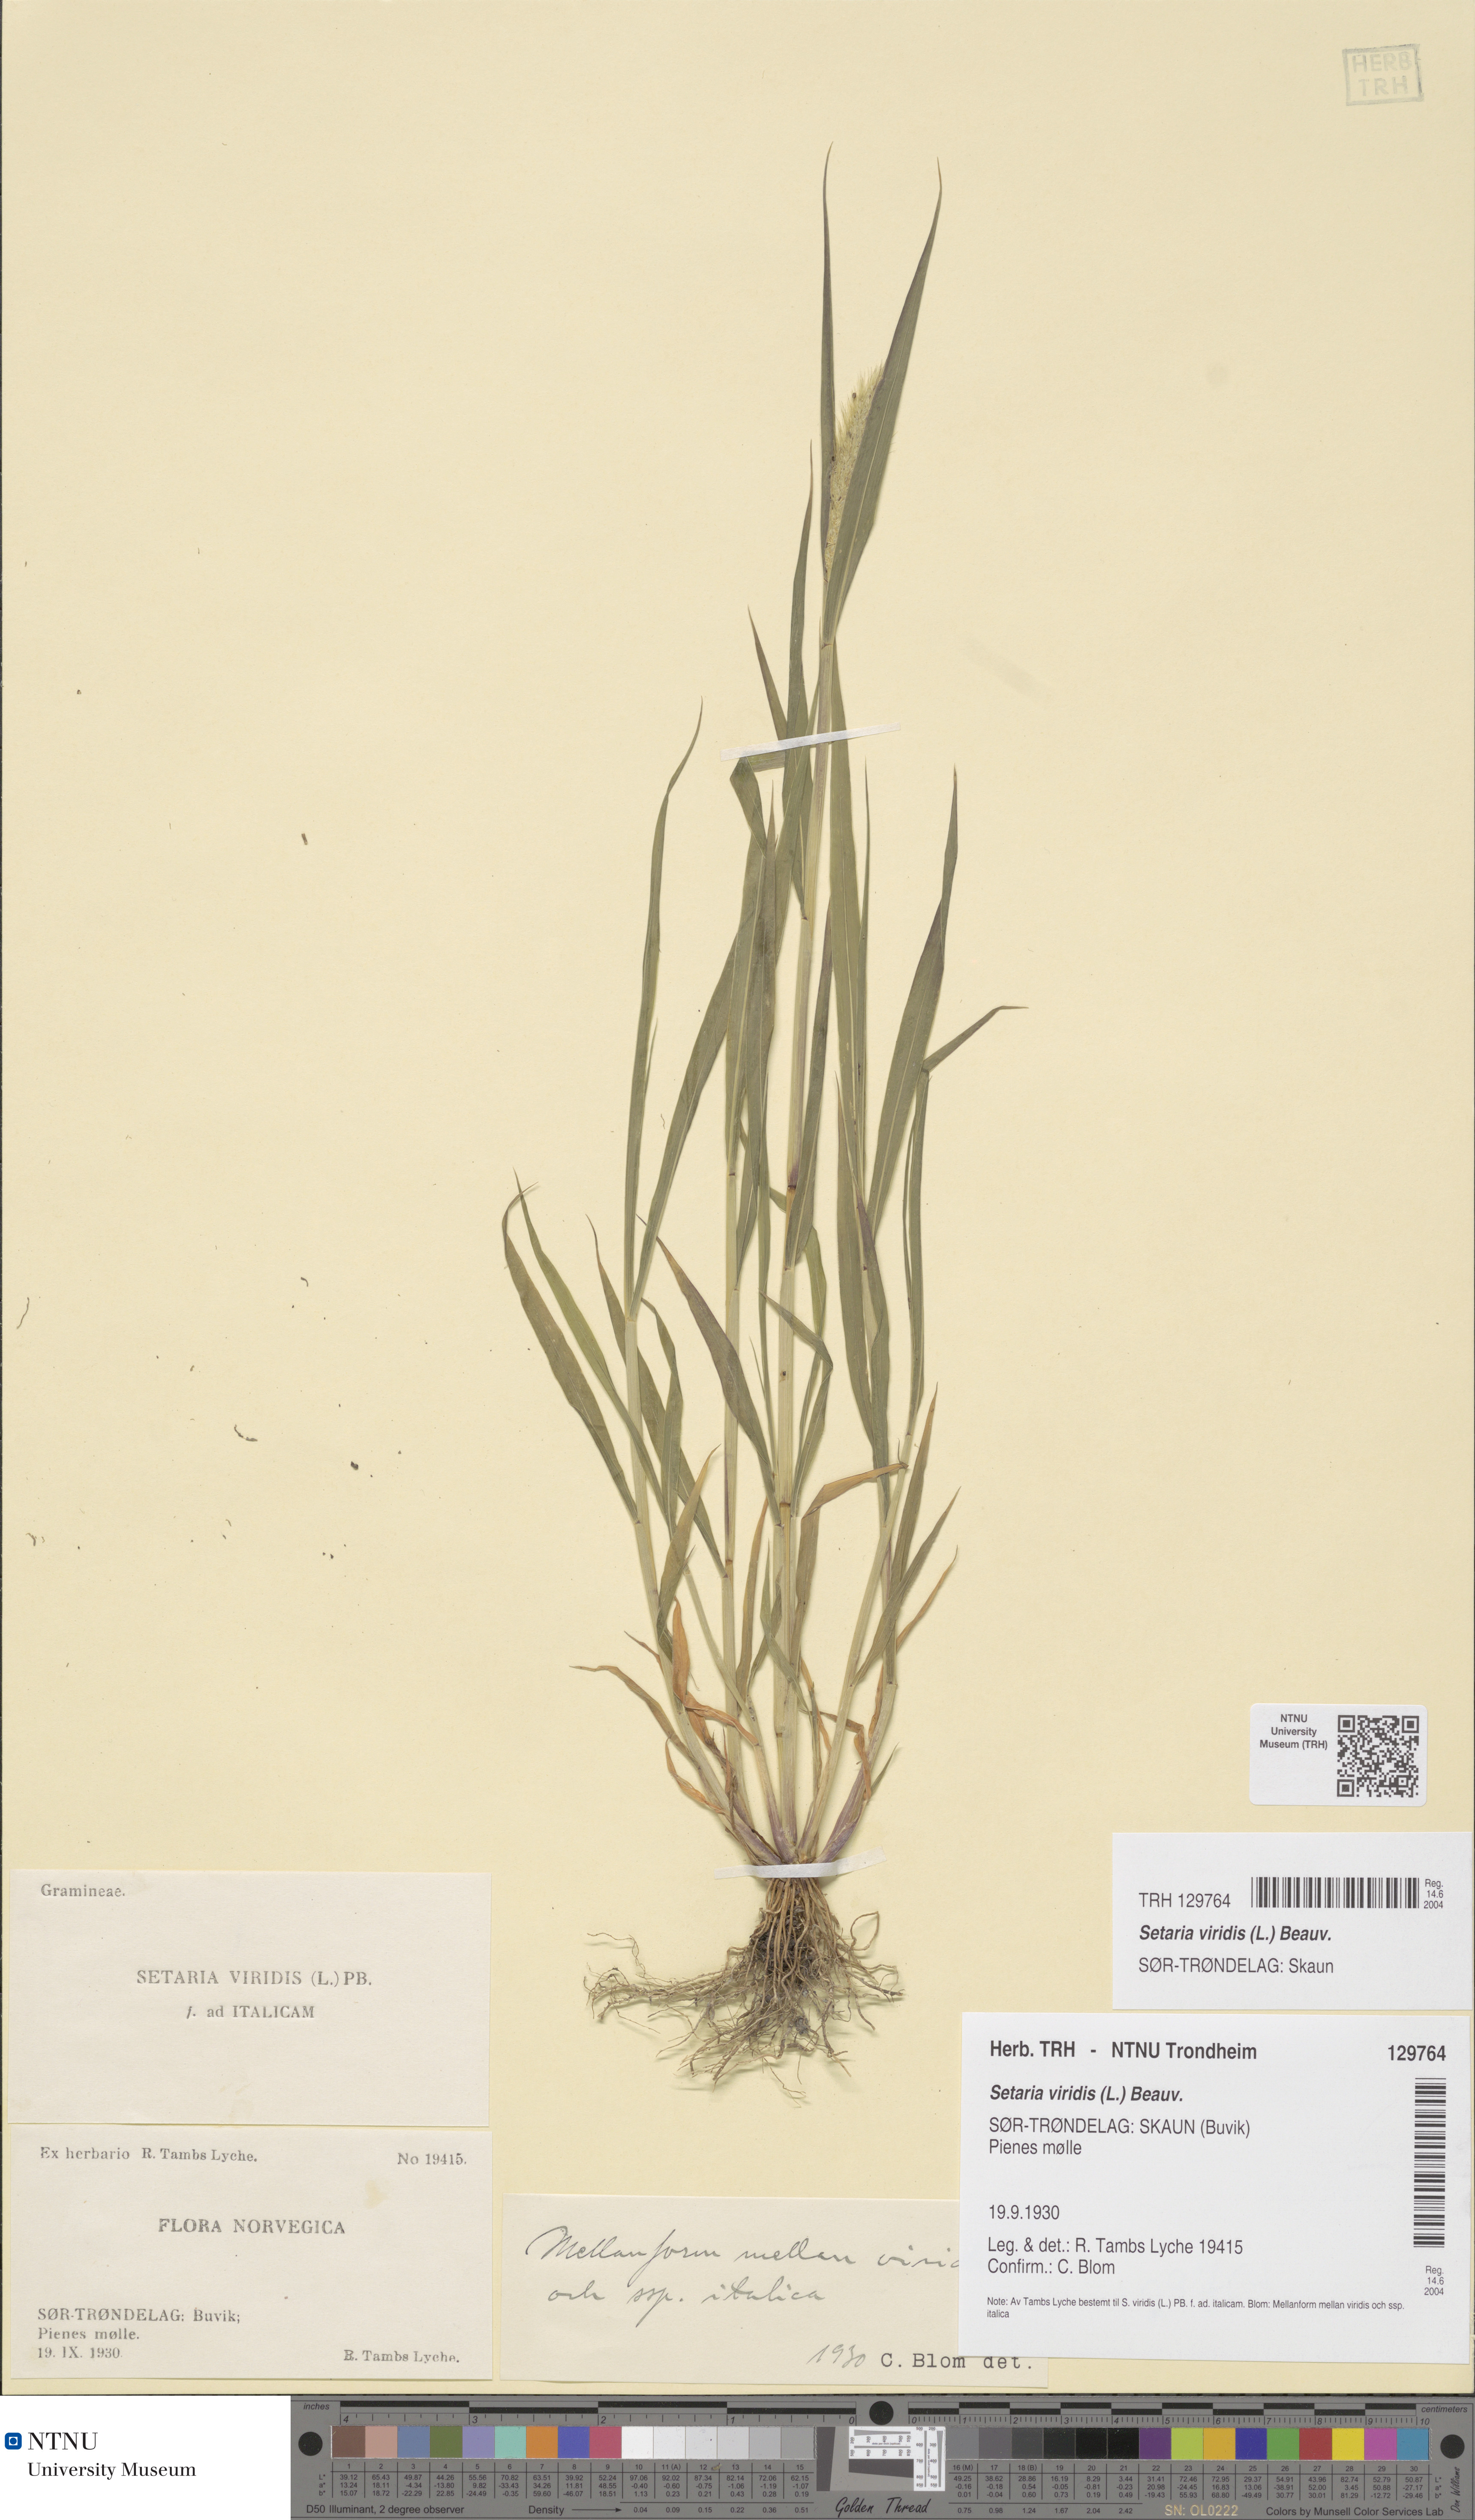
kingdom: Plantae
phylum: Tracheophyta
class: Liliopsida
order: Poales
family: Poaceae
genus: Setaria
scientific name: Setaria viridis
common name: Green bristlegrass
